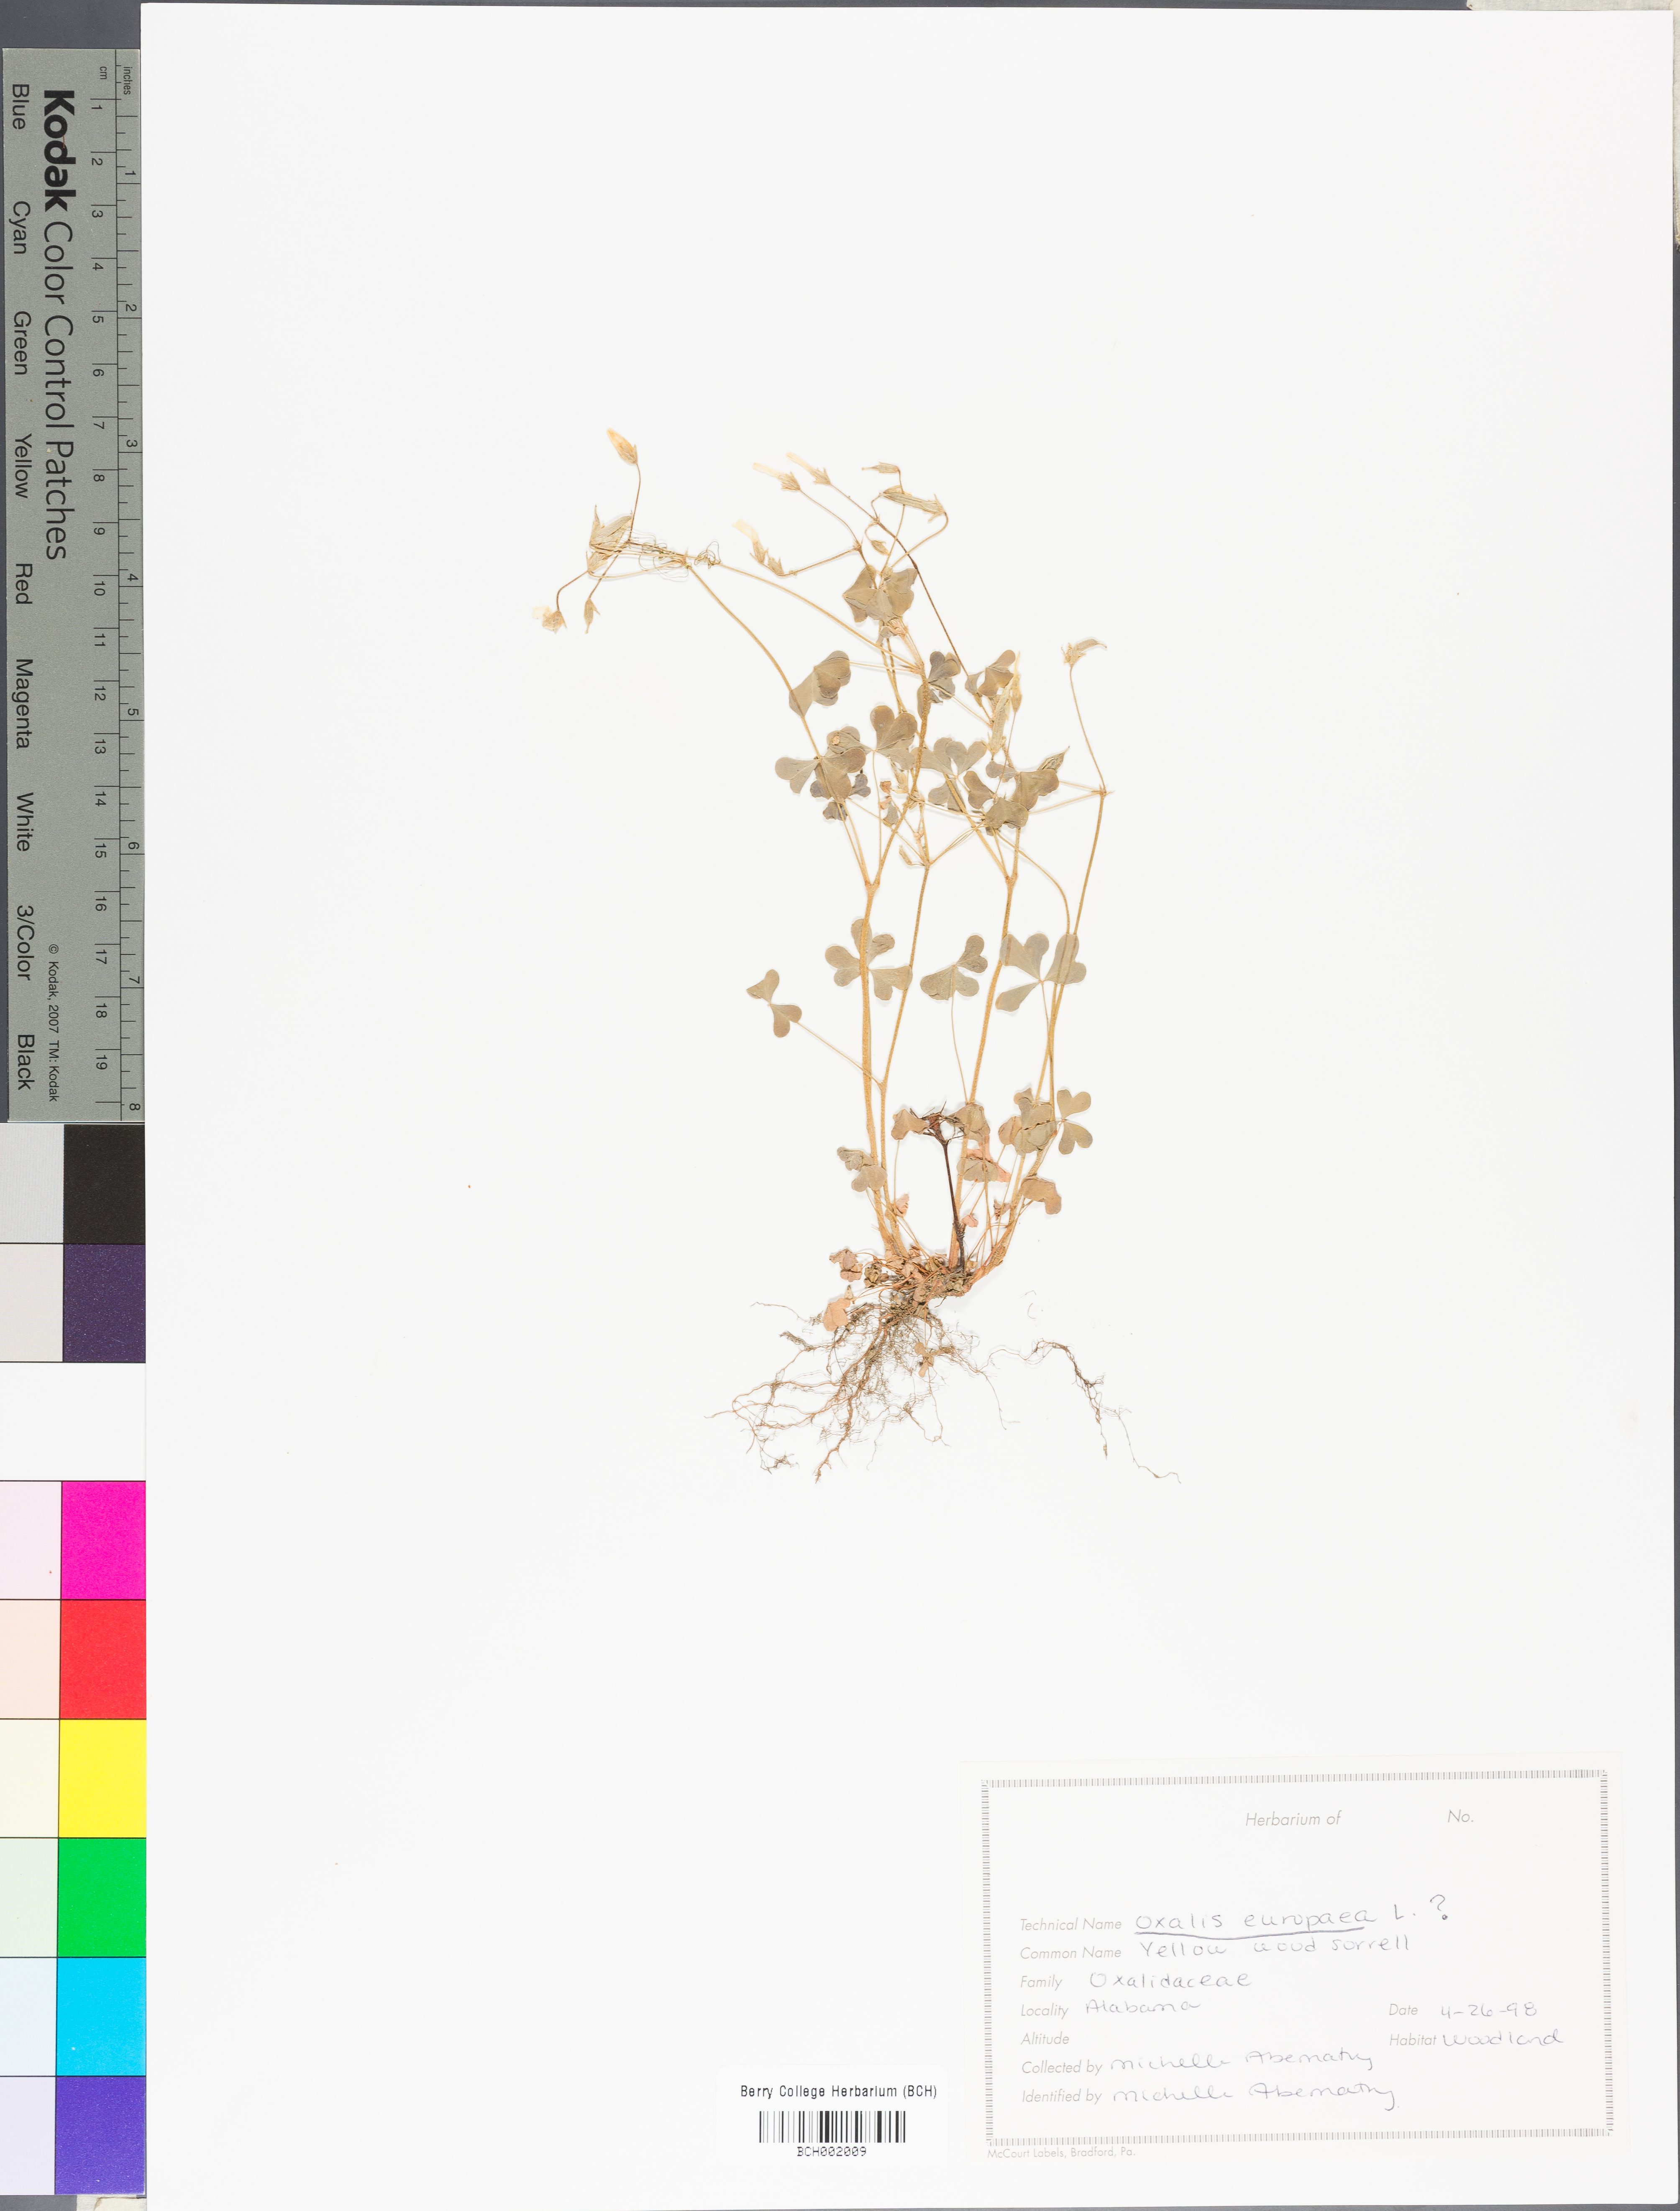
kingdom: Plantae
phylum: Tracheophyta
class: Magnoliopsida
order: Oxalidales
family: Oxalidaceae
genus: Oxalis
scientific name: Oxalis stricta
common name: Upright yellow-sorrel
